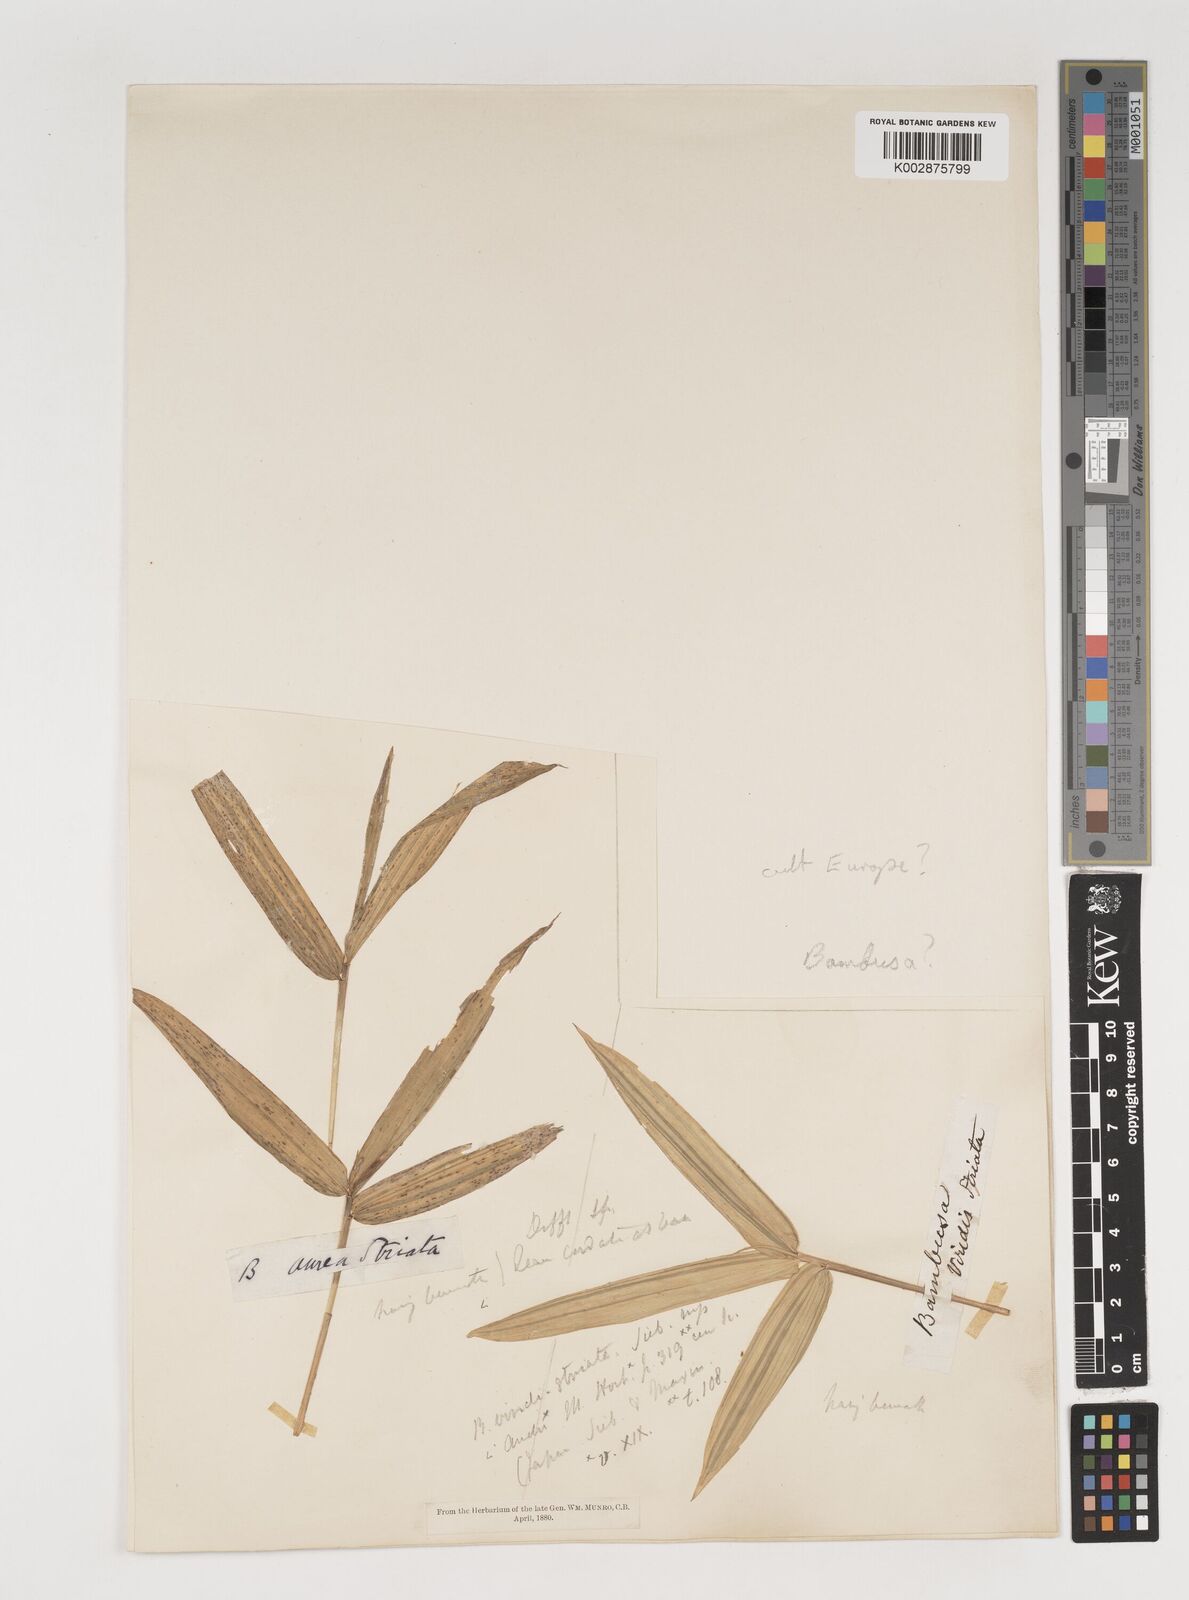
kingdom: Plantae
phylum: Tracheophyta
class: Liliopsida
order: Poales
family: Poaceae
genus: Bambusa
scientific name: Bambusa viridis
